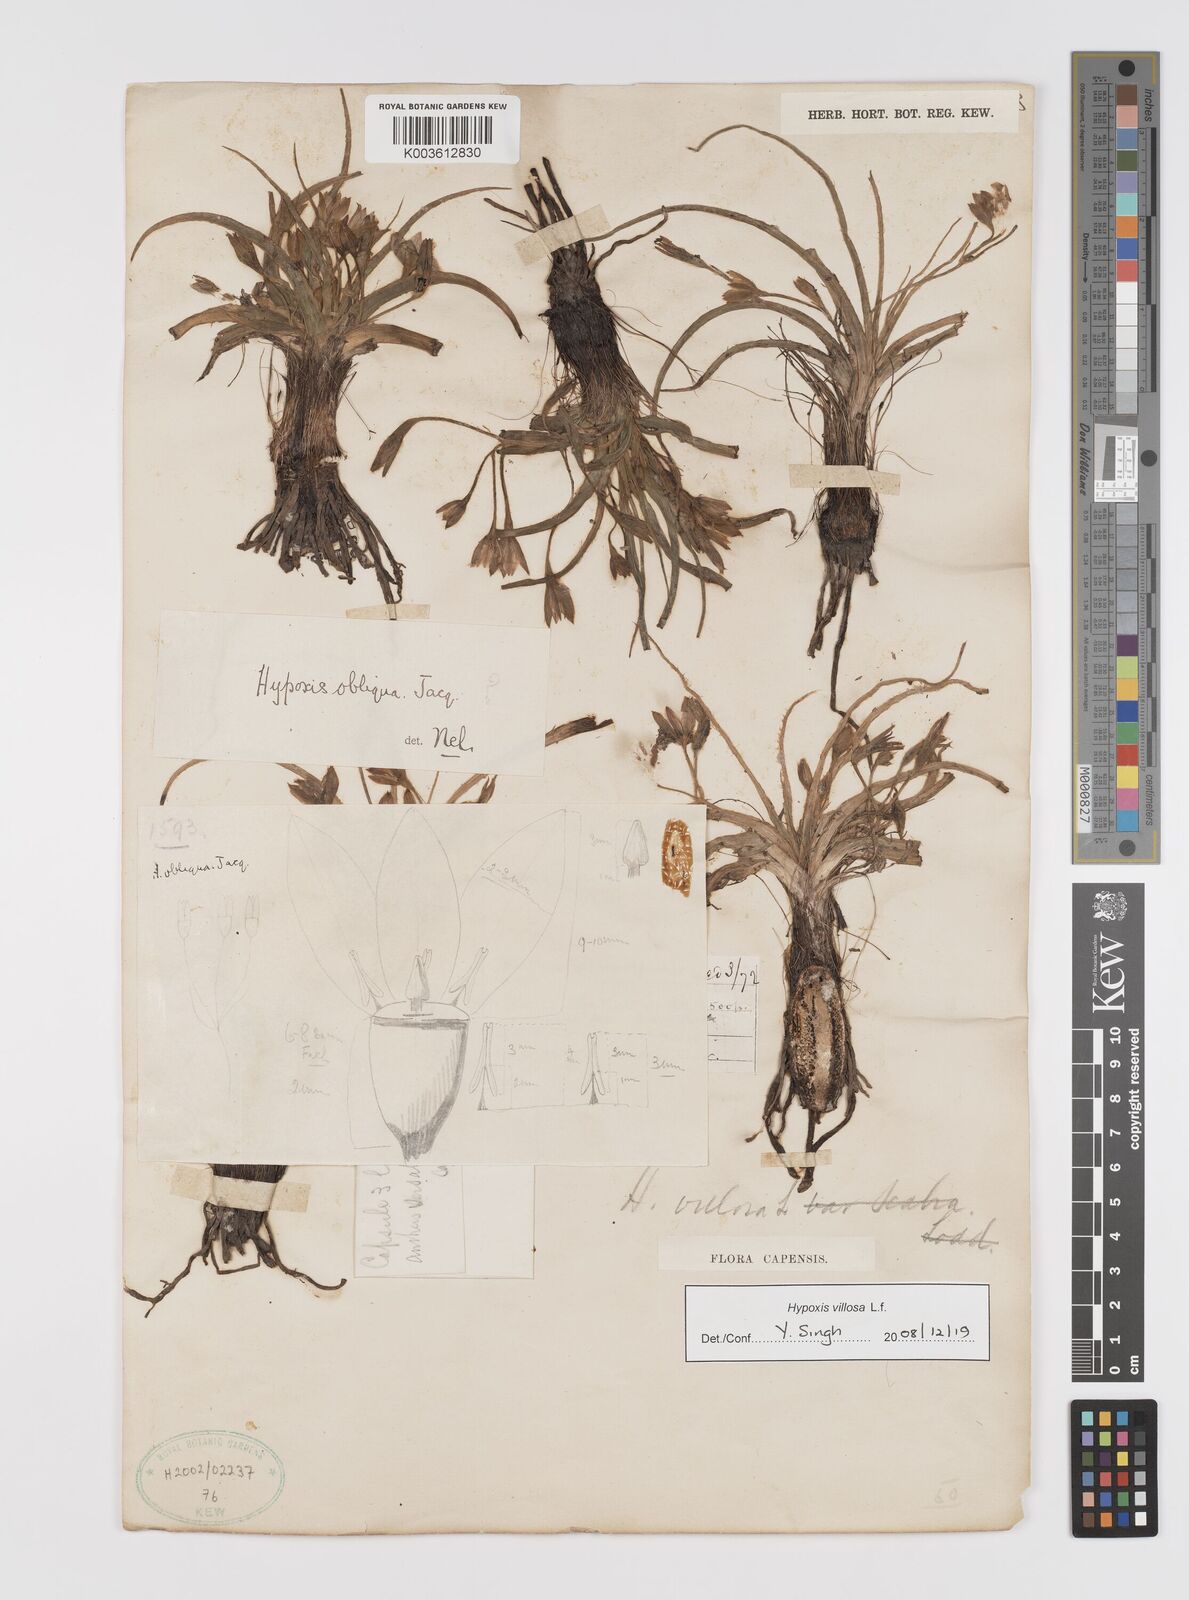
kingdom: Plantae
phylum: Tracheophyta
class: Liliopsida
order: Asparagales
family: Hypoxidaceae
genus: Hypoxis
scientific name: Hypoxis villosa
